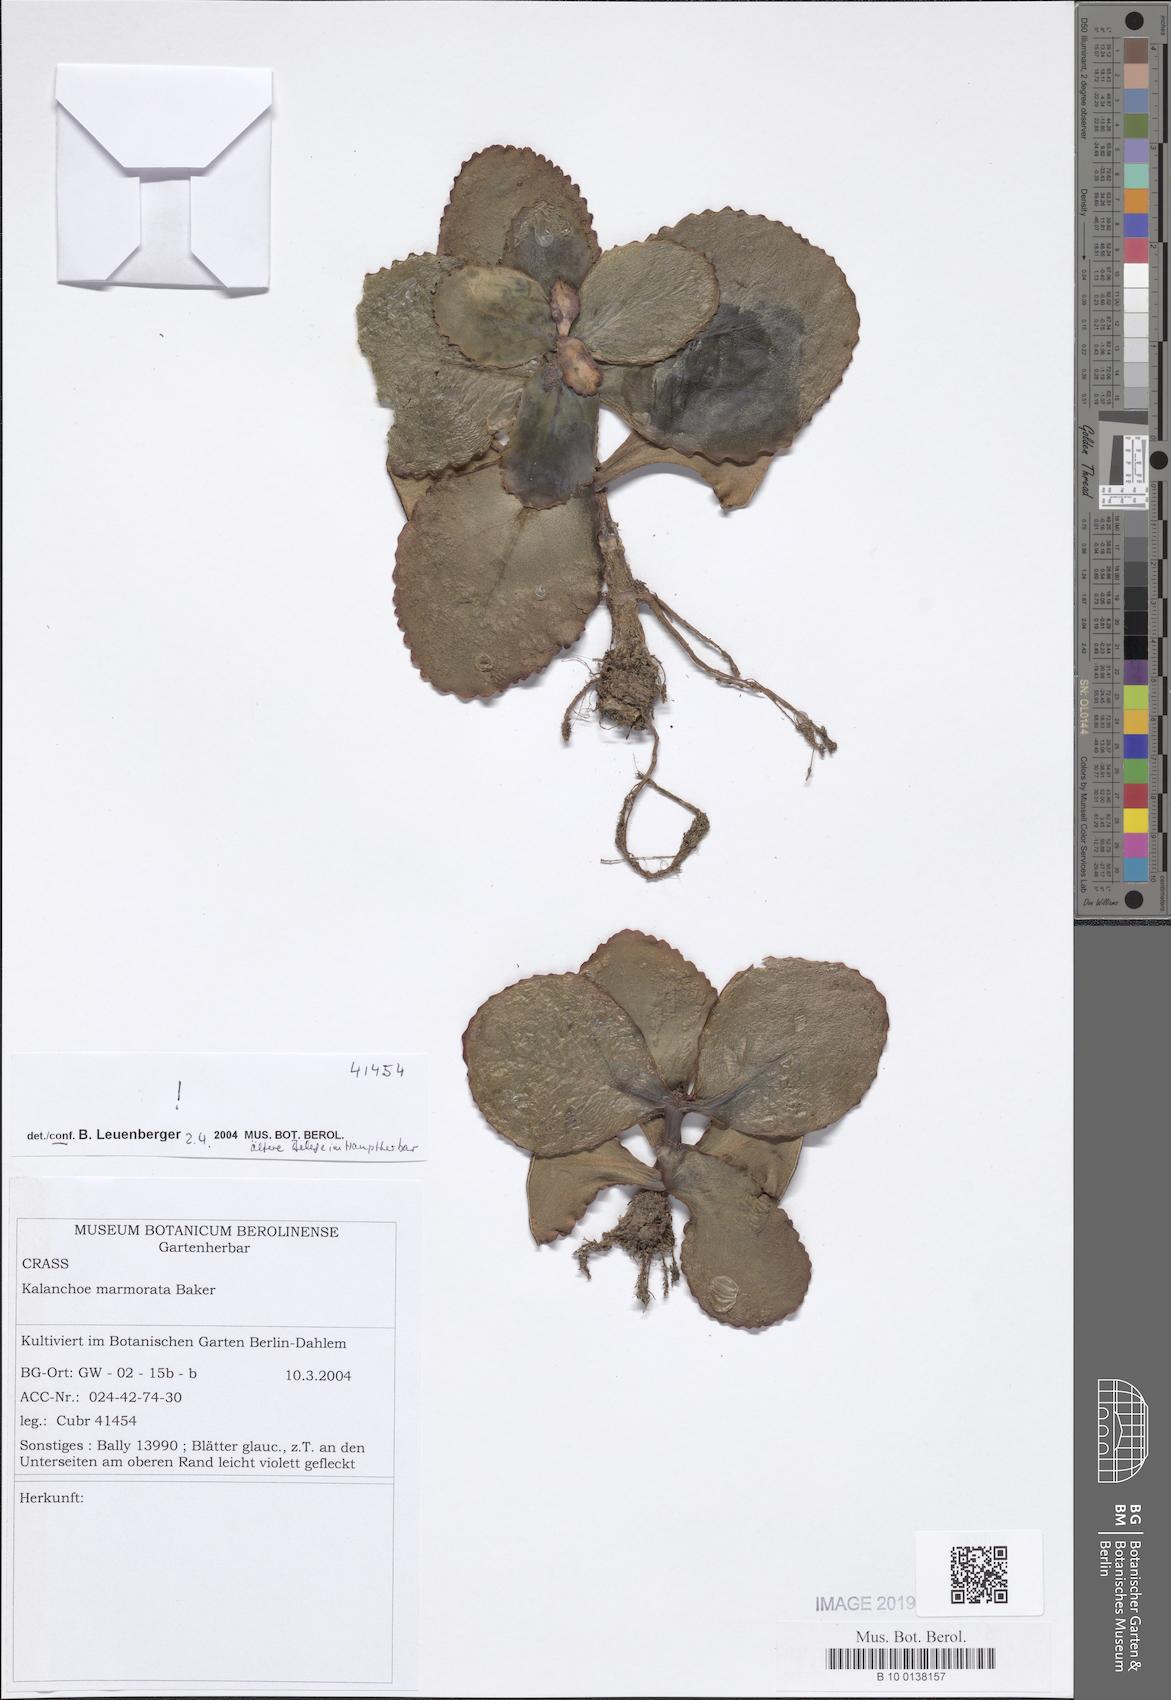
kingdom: Plantae
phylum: Tracheophyta
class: Magnoliopsida
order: Saxifragales
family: Crassulaceae
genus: Kalanchoe
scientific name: Kalanchoe marmorata
